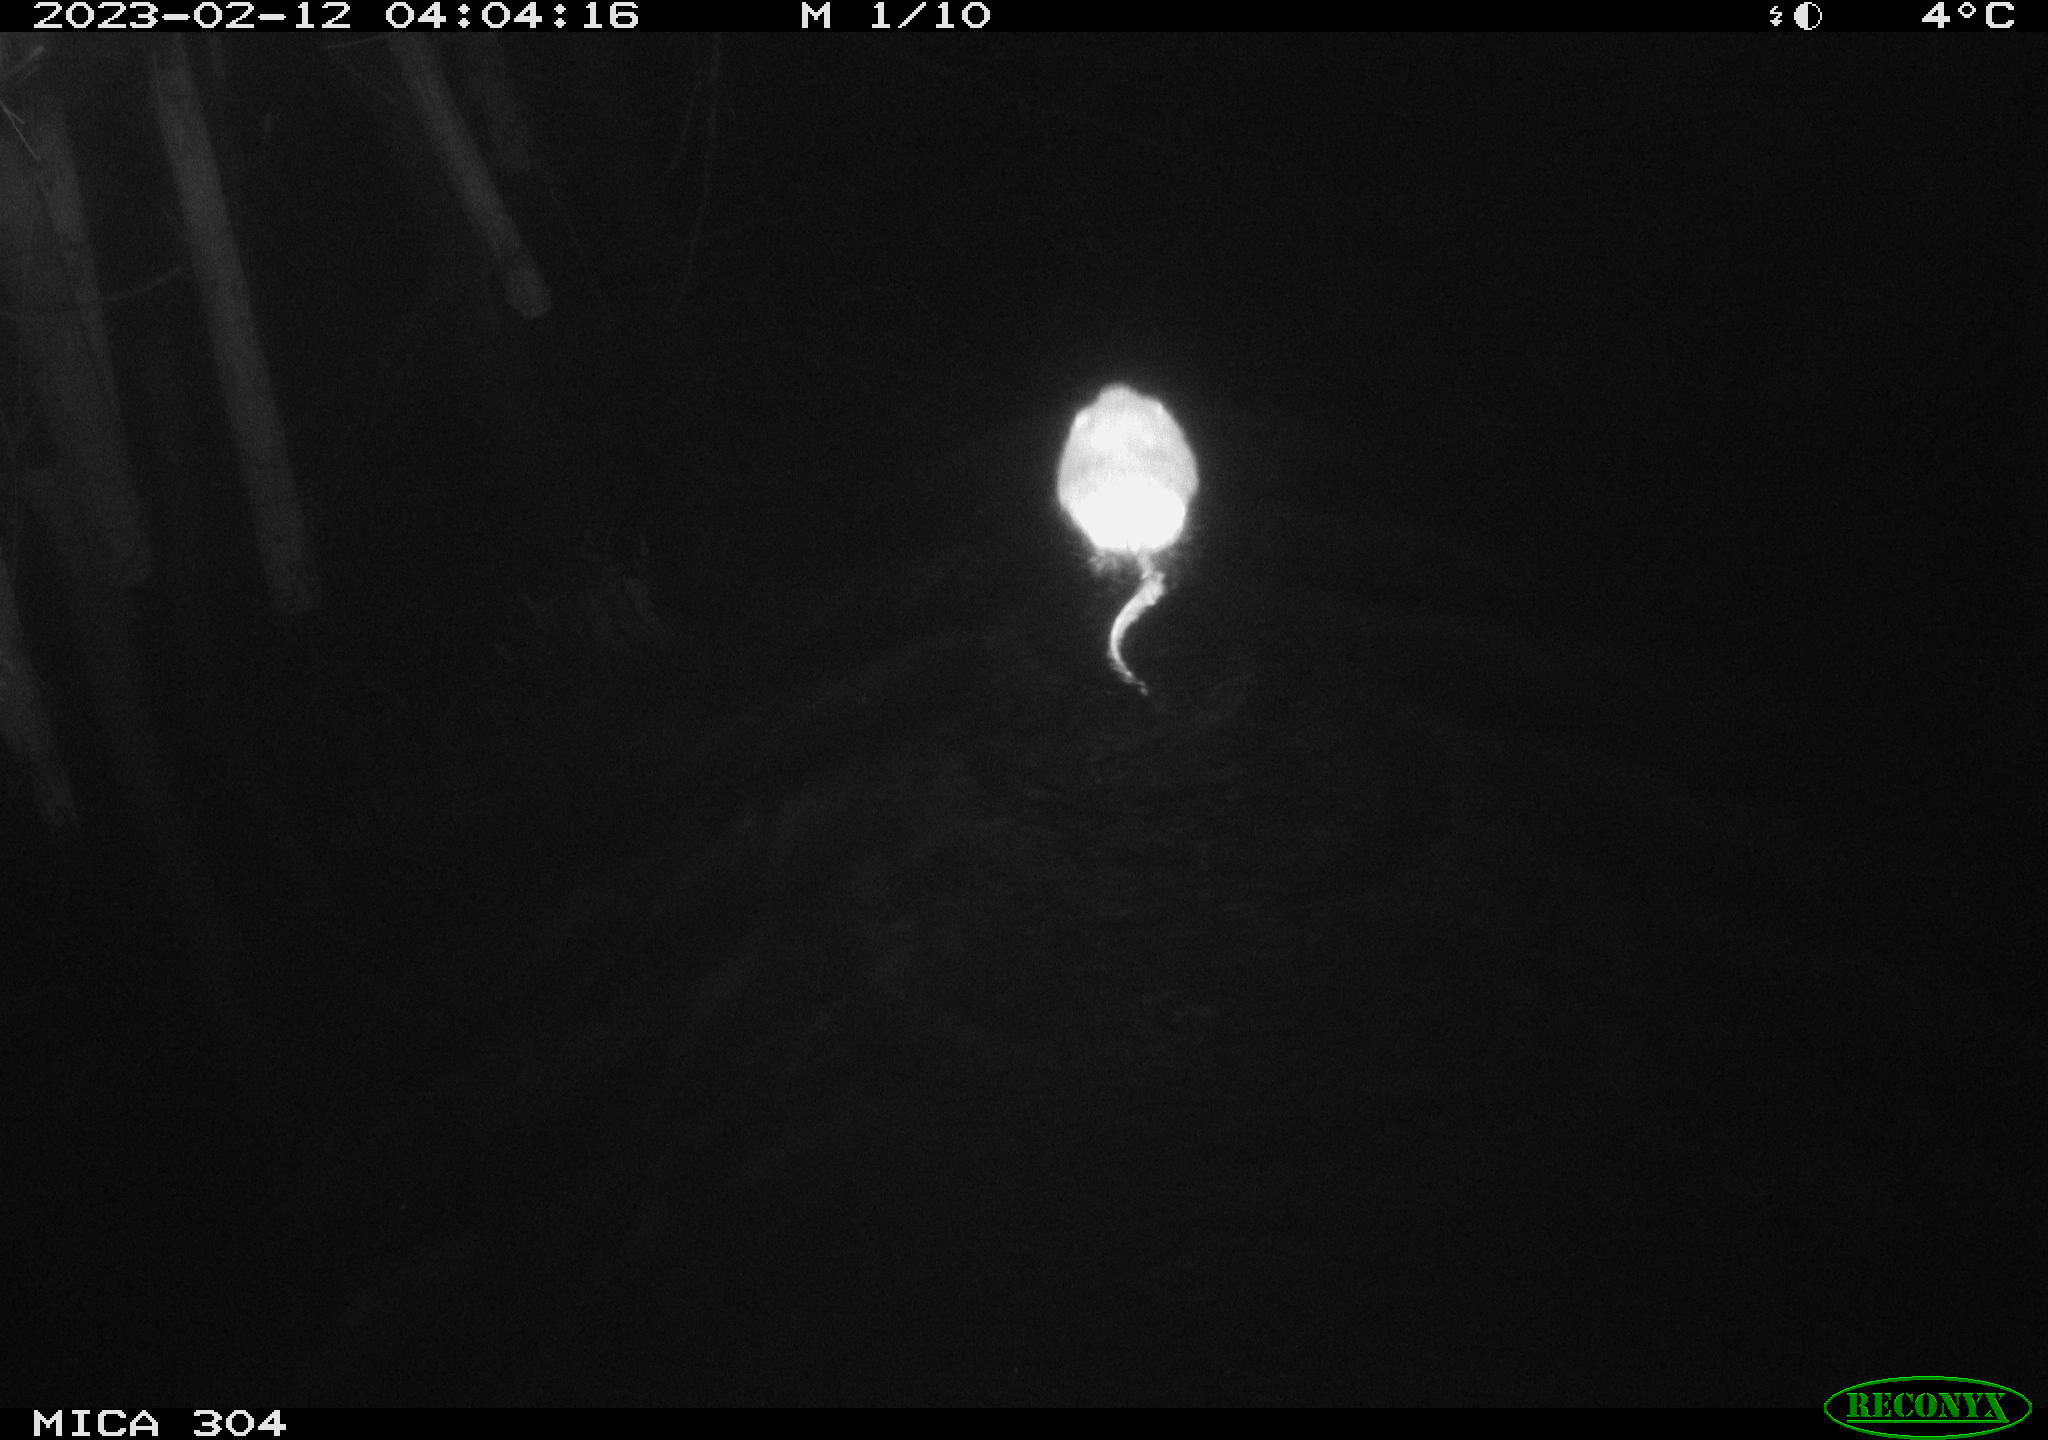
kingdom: Animalia
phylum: Chordata
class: Mammalia
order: Rodentia
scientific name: Rodentia
